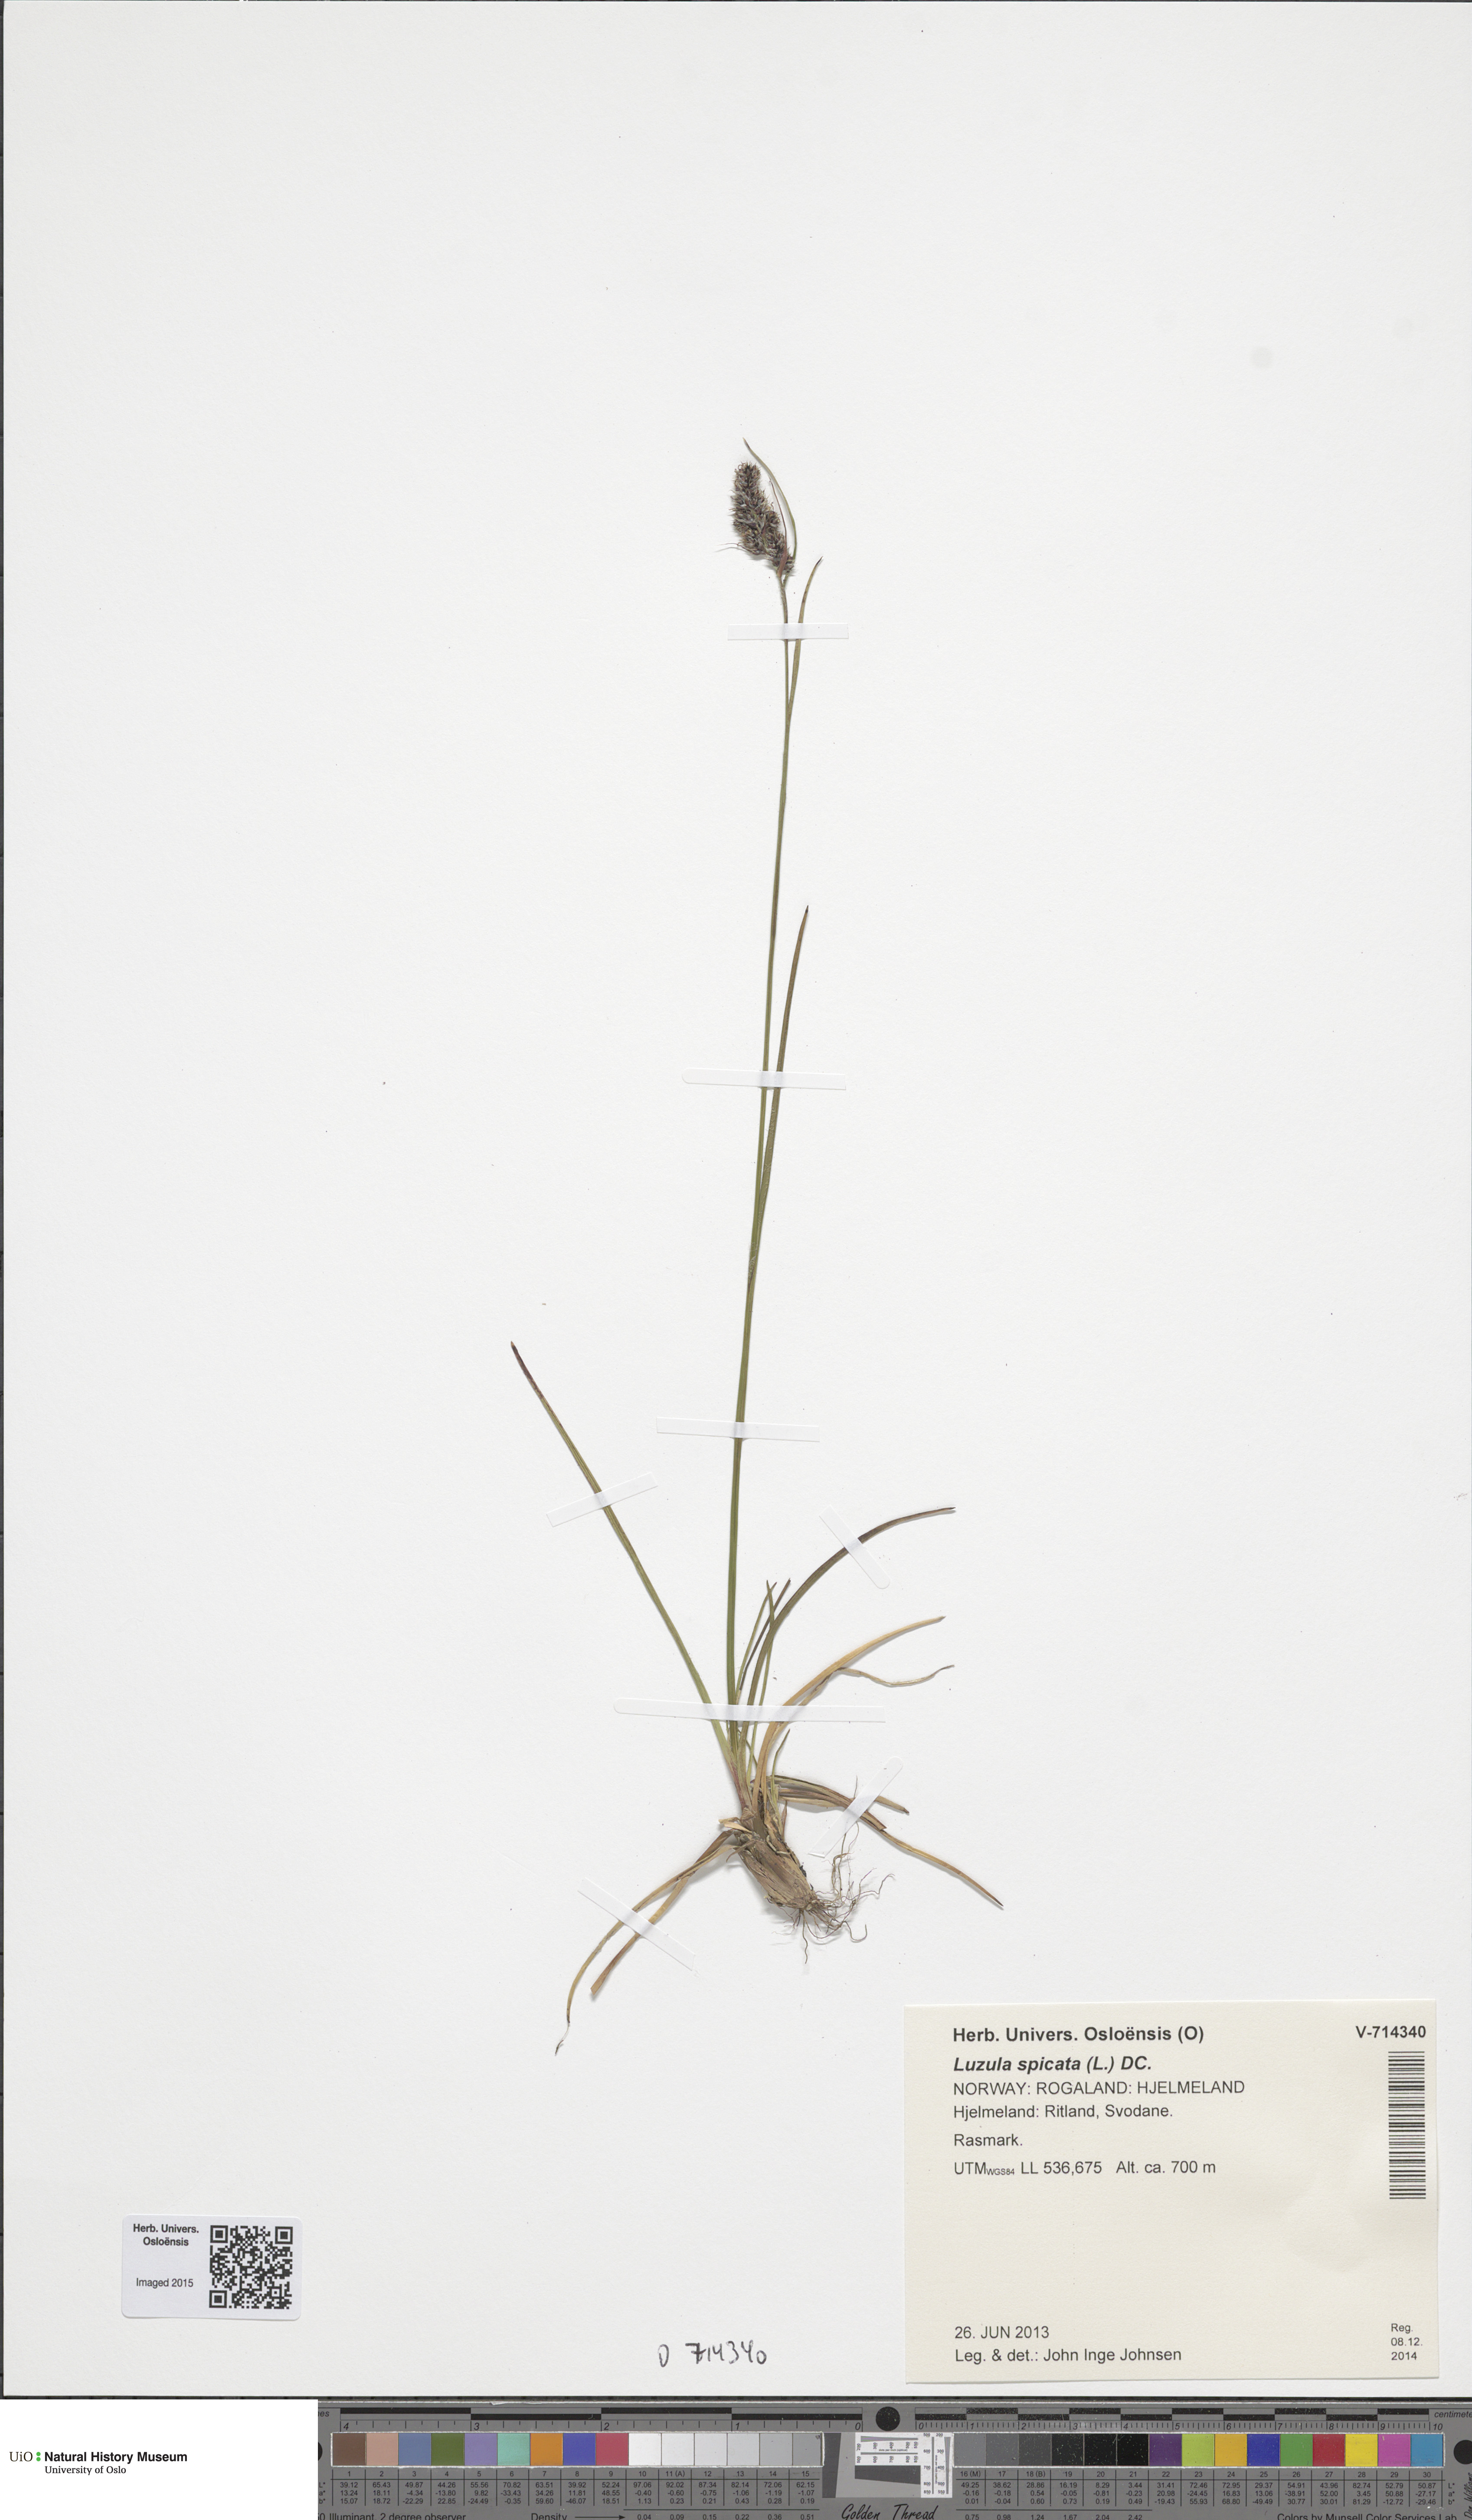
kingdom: Plantae
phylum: Tracheophyta
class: Liliopsida
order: Poales
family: Juncaceae
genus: Luzula
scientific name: Luzula spicata
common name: Spiked wood-rush
